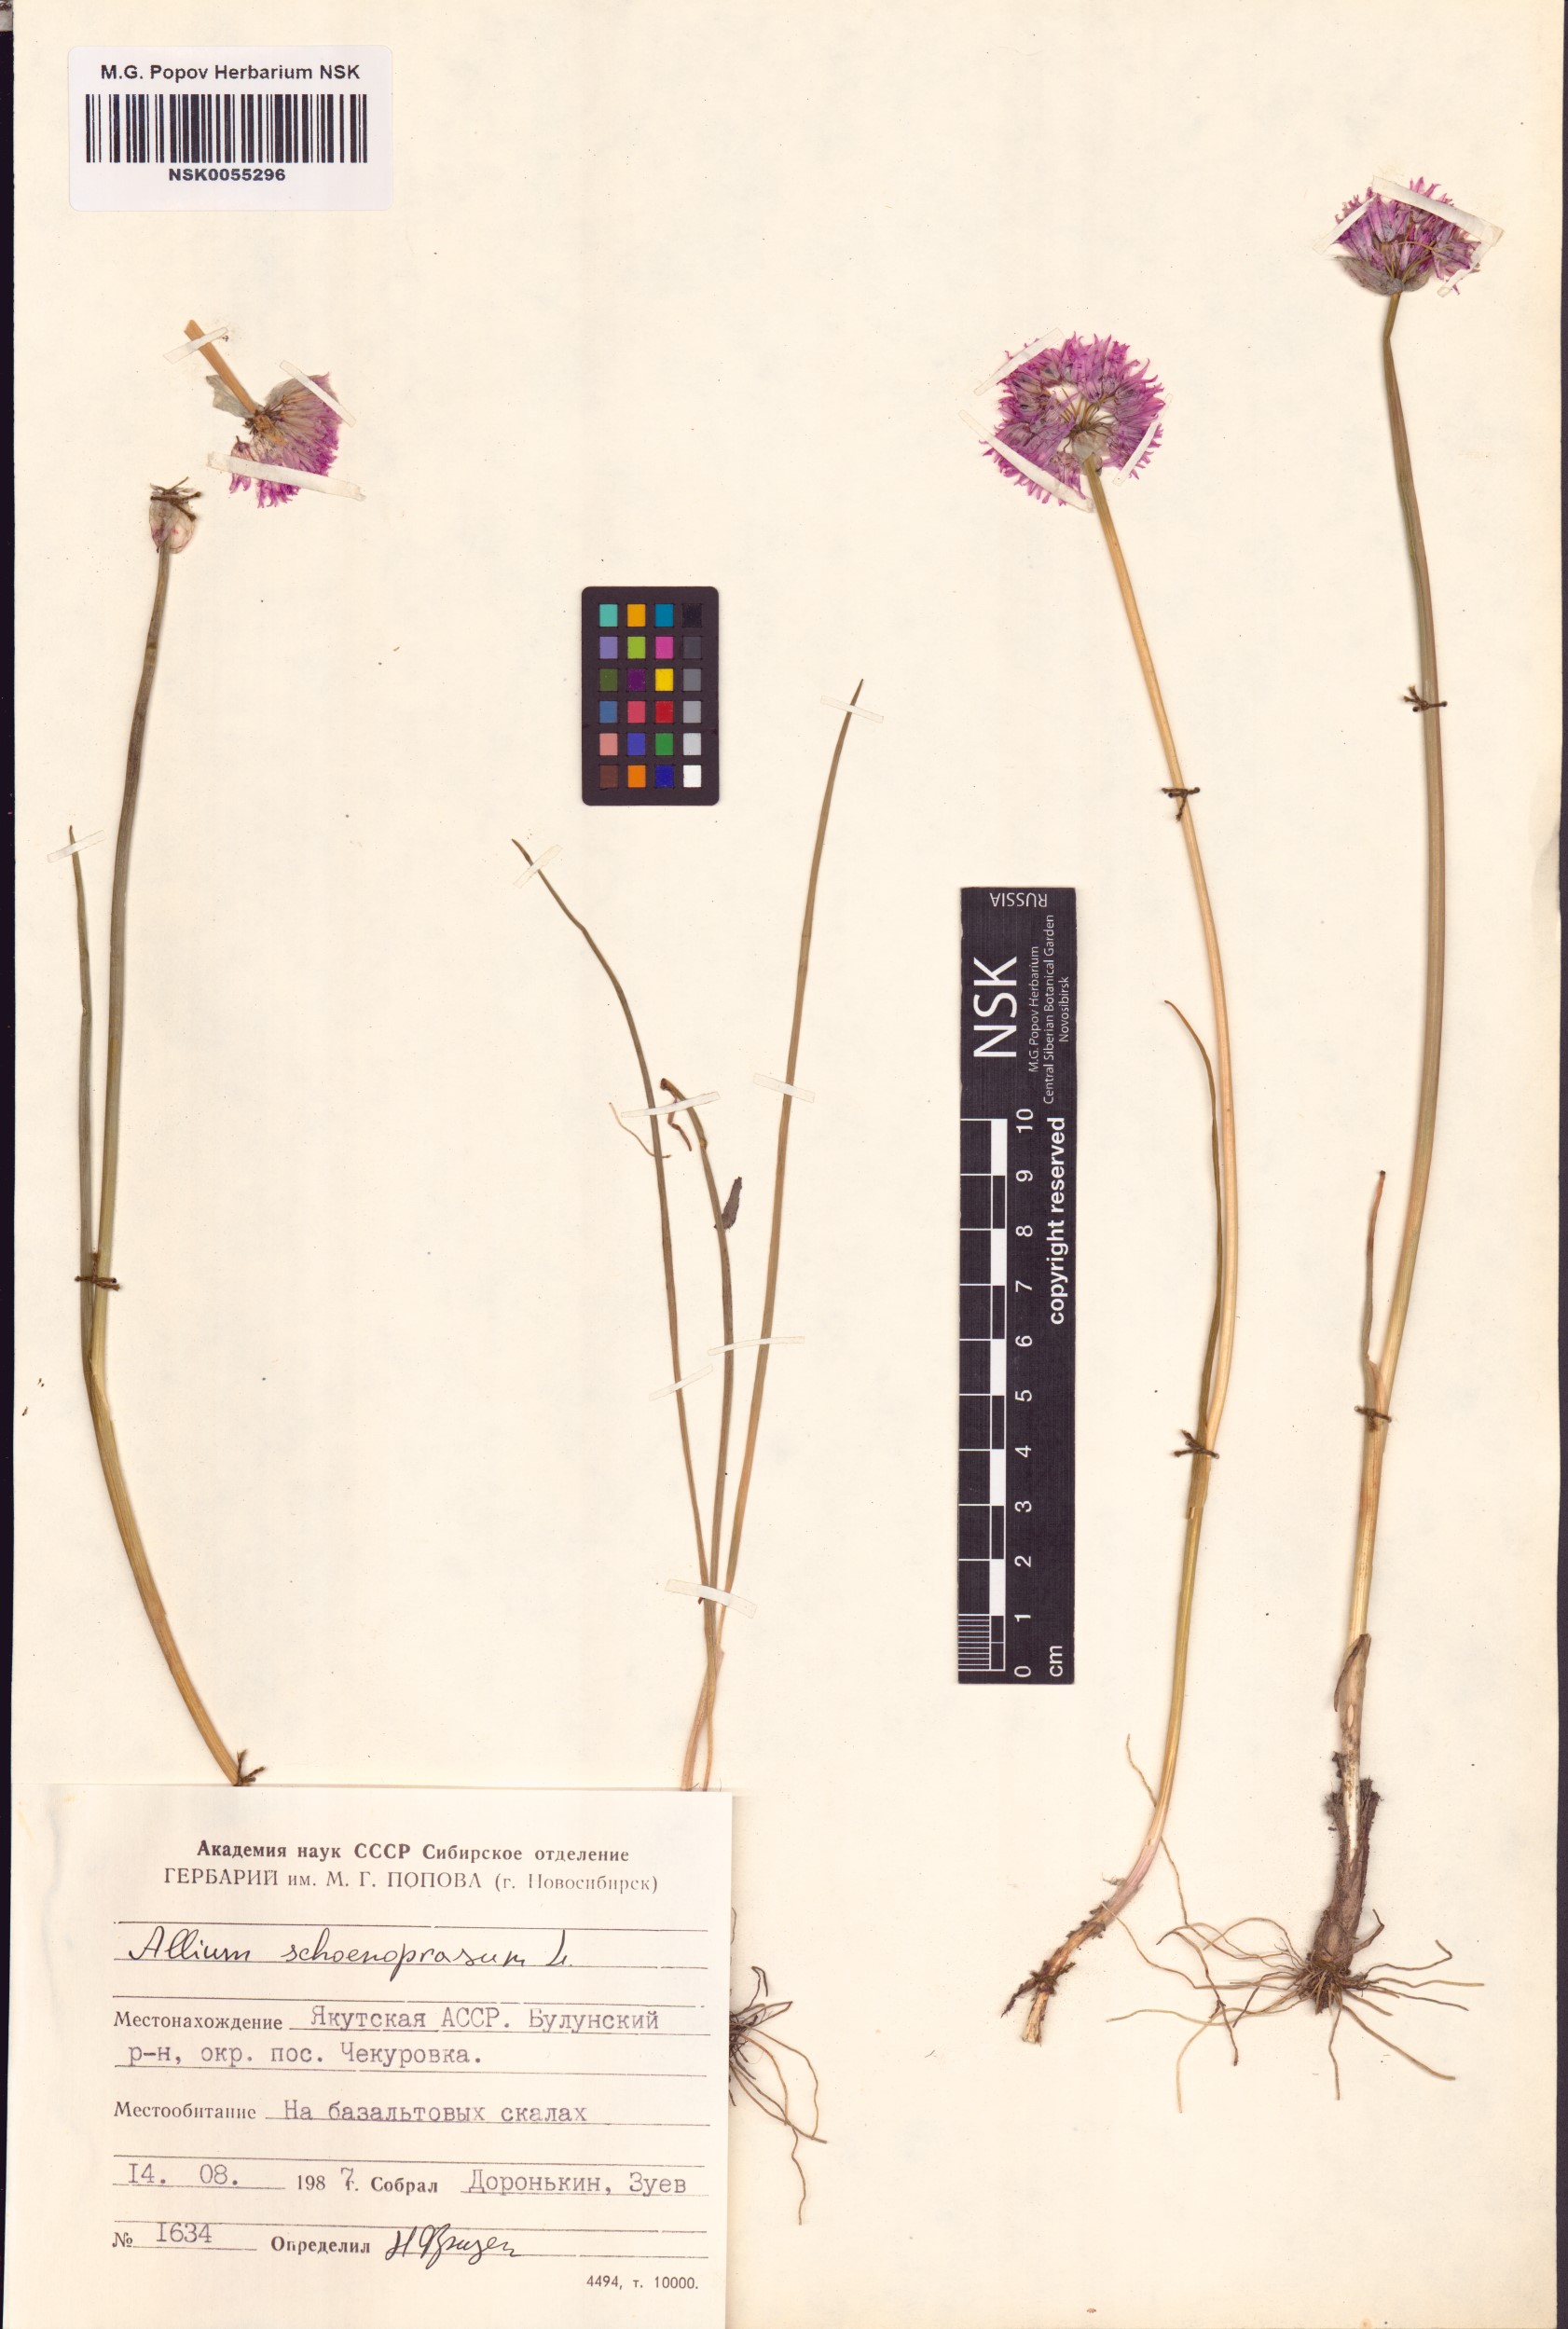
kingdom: Plantae
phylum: Tracheophyta
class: Liliopsida
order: Asparagales
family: Amaryllidaceae
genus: Allium
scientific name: Allium schoenoprasum
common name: Chives
